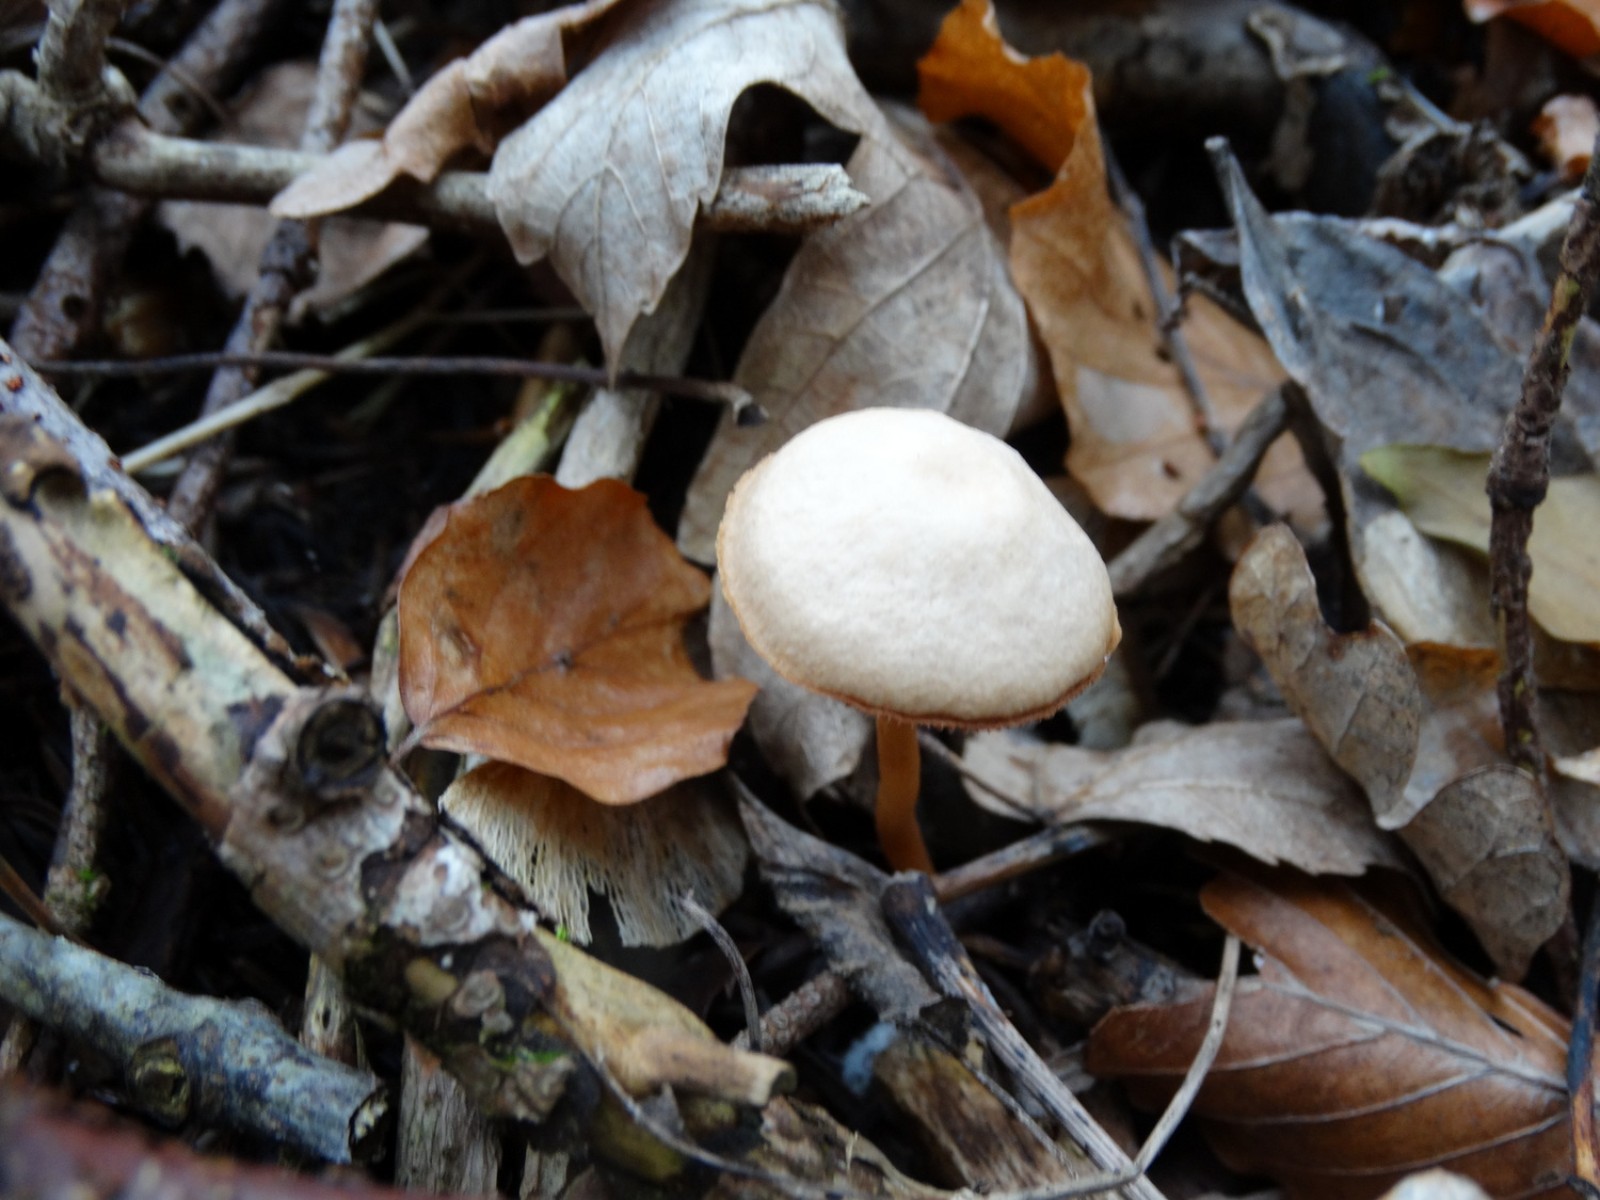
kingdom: Fungi
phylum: Basidiomycota
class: Agaricomycetes
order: Agaricales
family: Tubariaceae
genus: Tubaria
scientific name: Tubaria furfuracea
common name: kliddet fnughat
